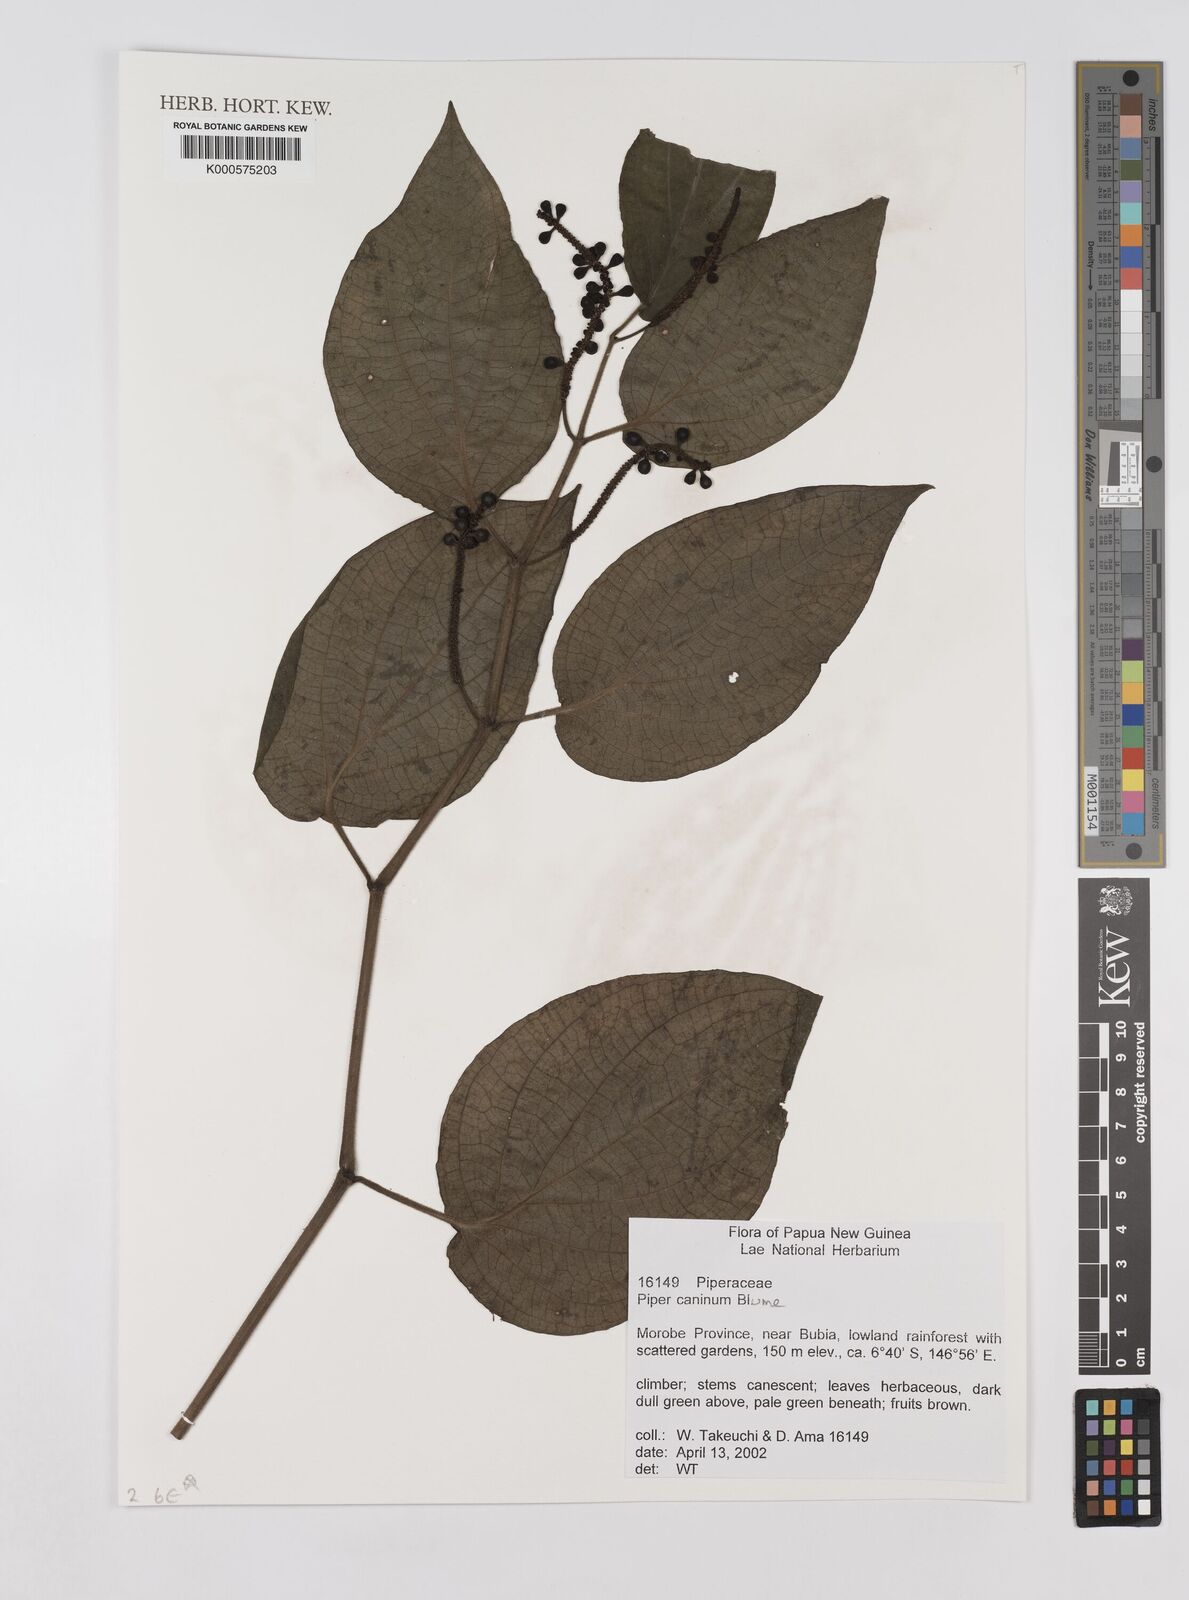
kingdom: Plantae
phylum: Tracheophyta
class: Magnoliopsida
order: Piperales
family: Piperaceae
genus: Piper
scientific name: Piper lanatum
